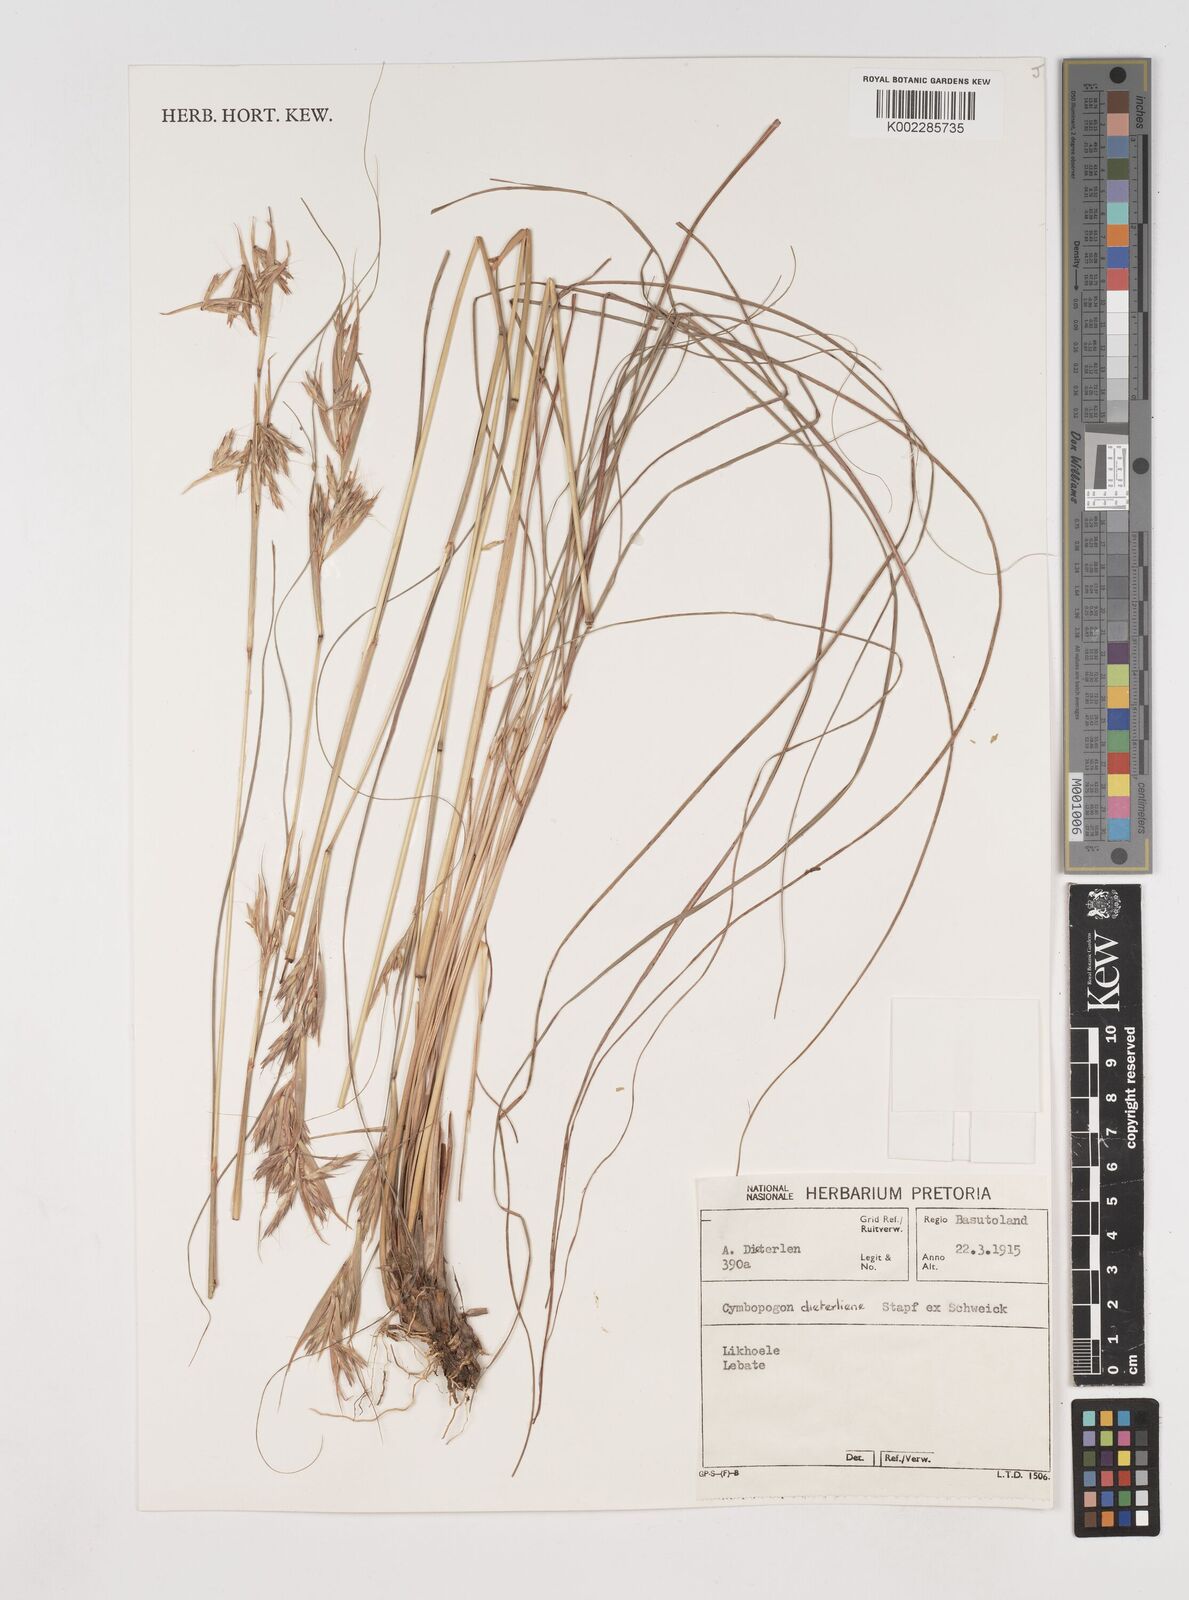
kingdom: Plantae
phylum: Tracheophyta
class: Liliopsida
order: Poales
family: Poaceae
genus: Cymbopogon
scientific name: Cymbopogon dieterlenii
